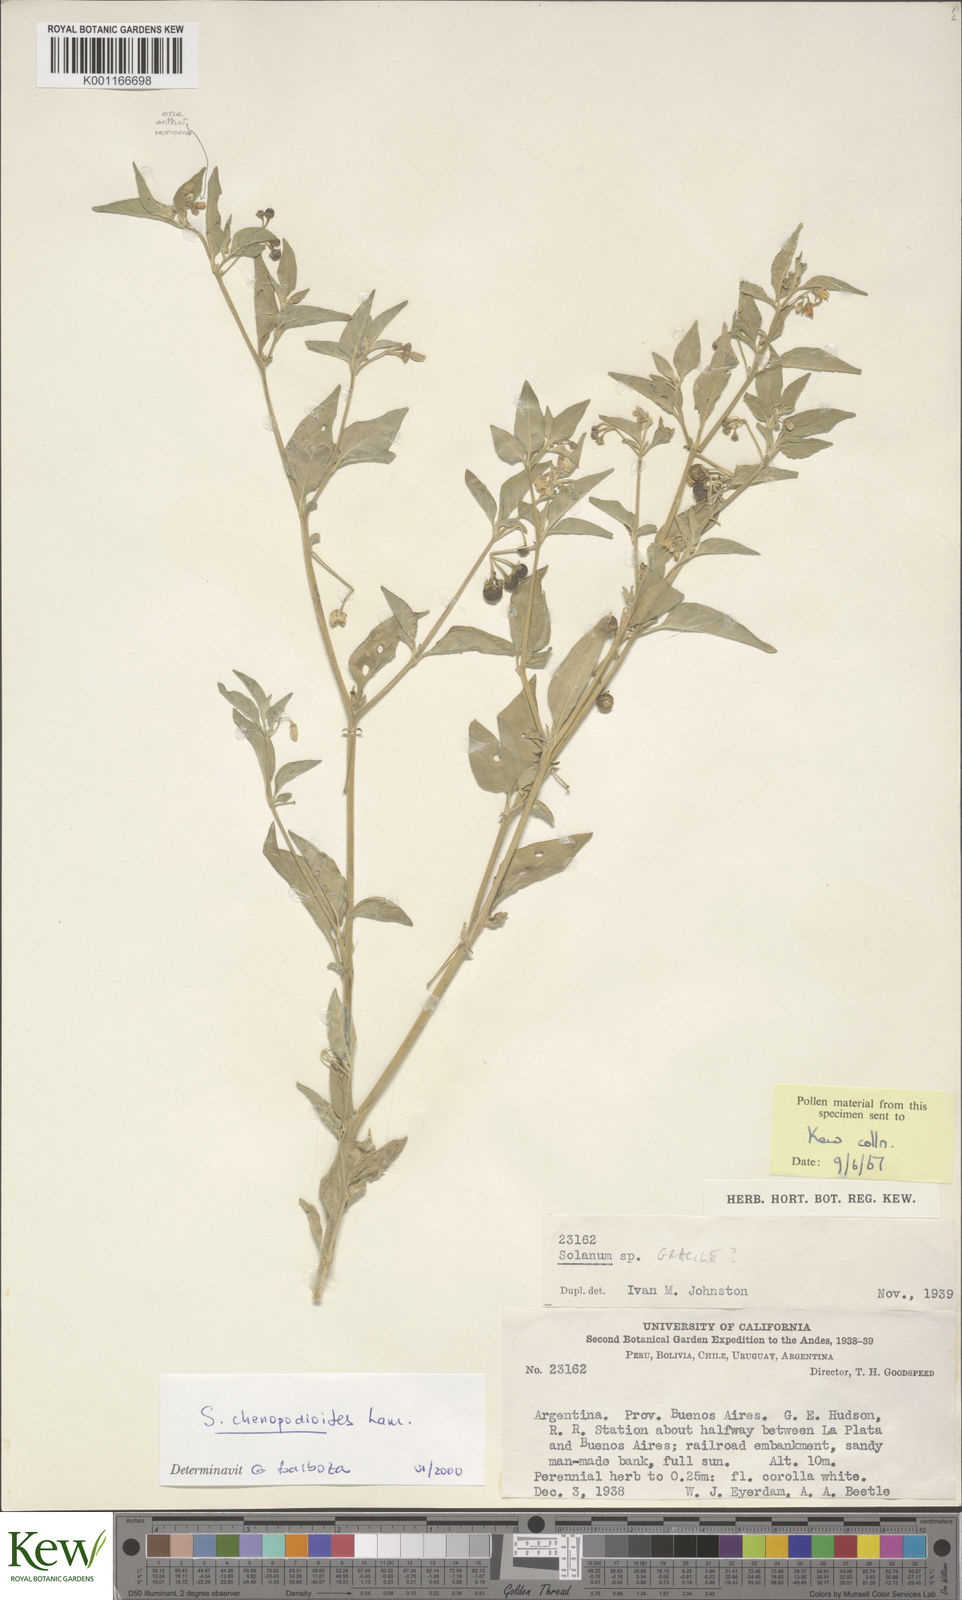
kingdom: Plantae
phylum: Tracheophyta
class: Magnoliopsida
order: Solanales
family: Solanaceae
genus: Solanum
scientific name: Solanum chenopodioides
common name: Tall nightshade
